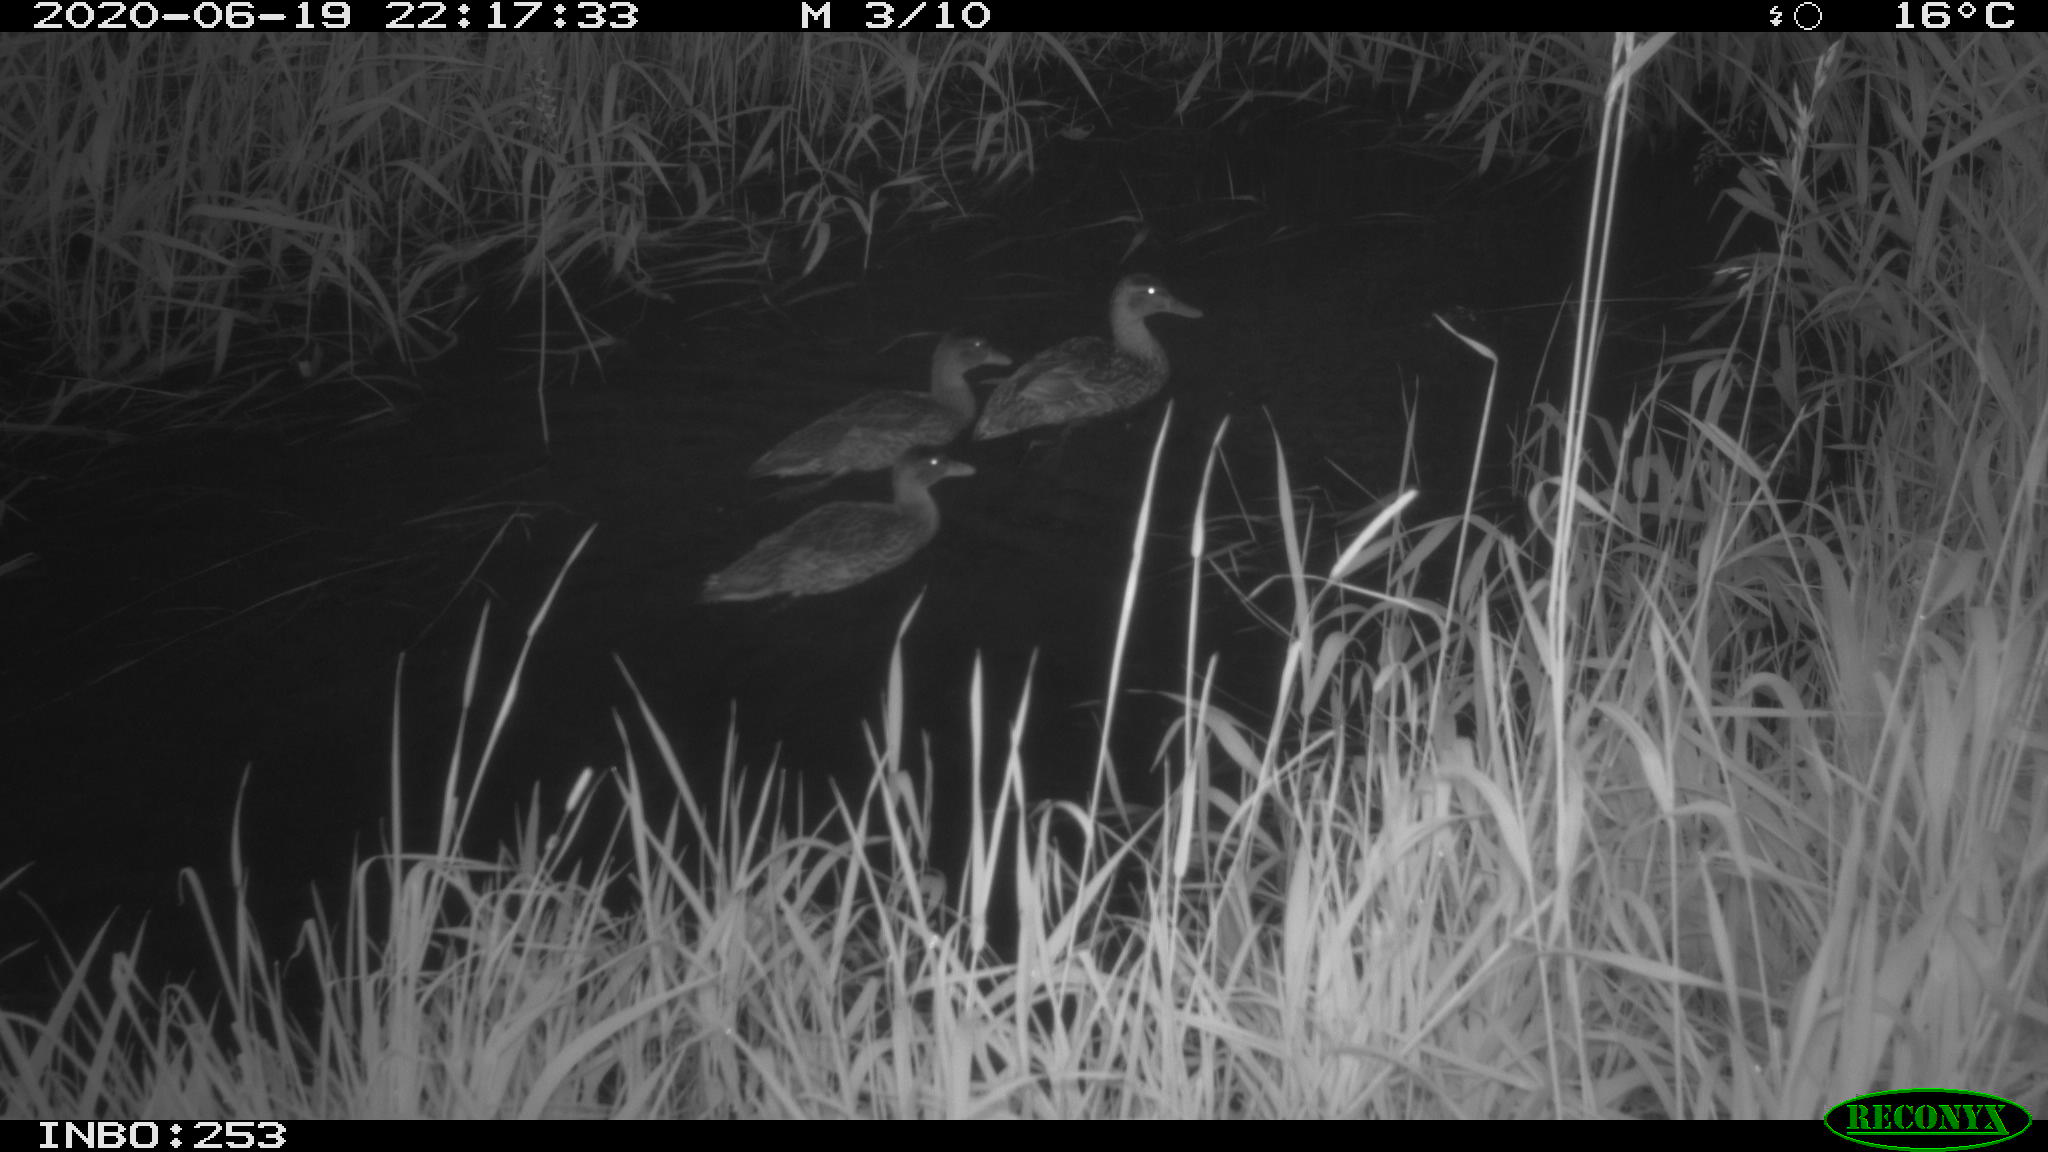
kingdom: Animalia
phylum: Chordata
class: Aves
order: Anseriformes
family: Anatidae
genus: Anas
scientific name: Anas platyrhynchos
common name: Mallard
